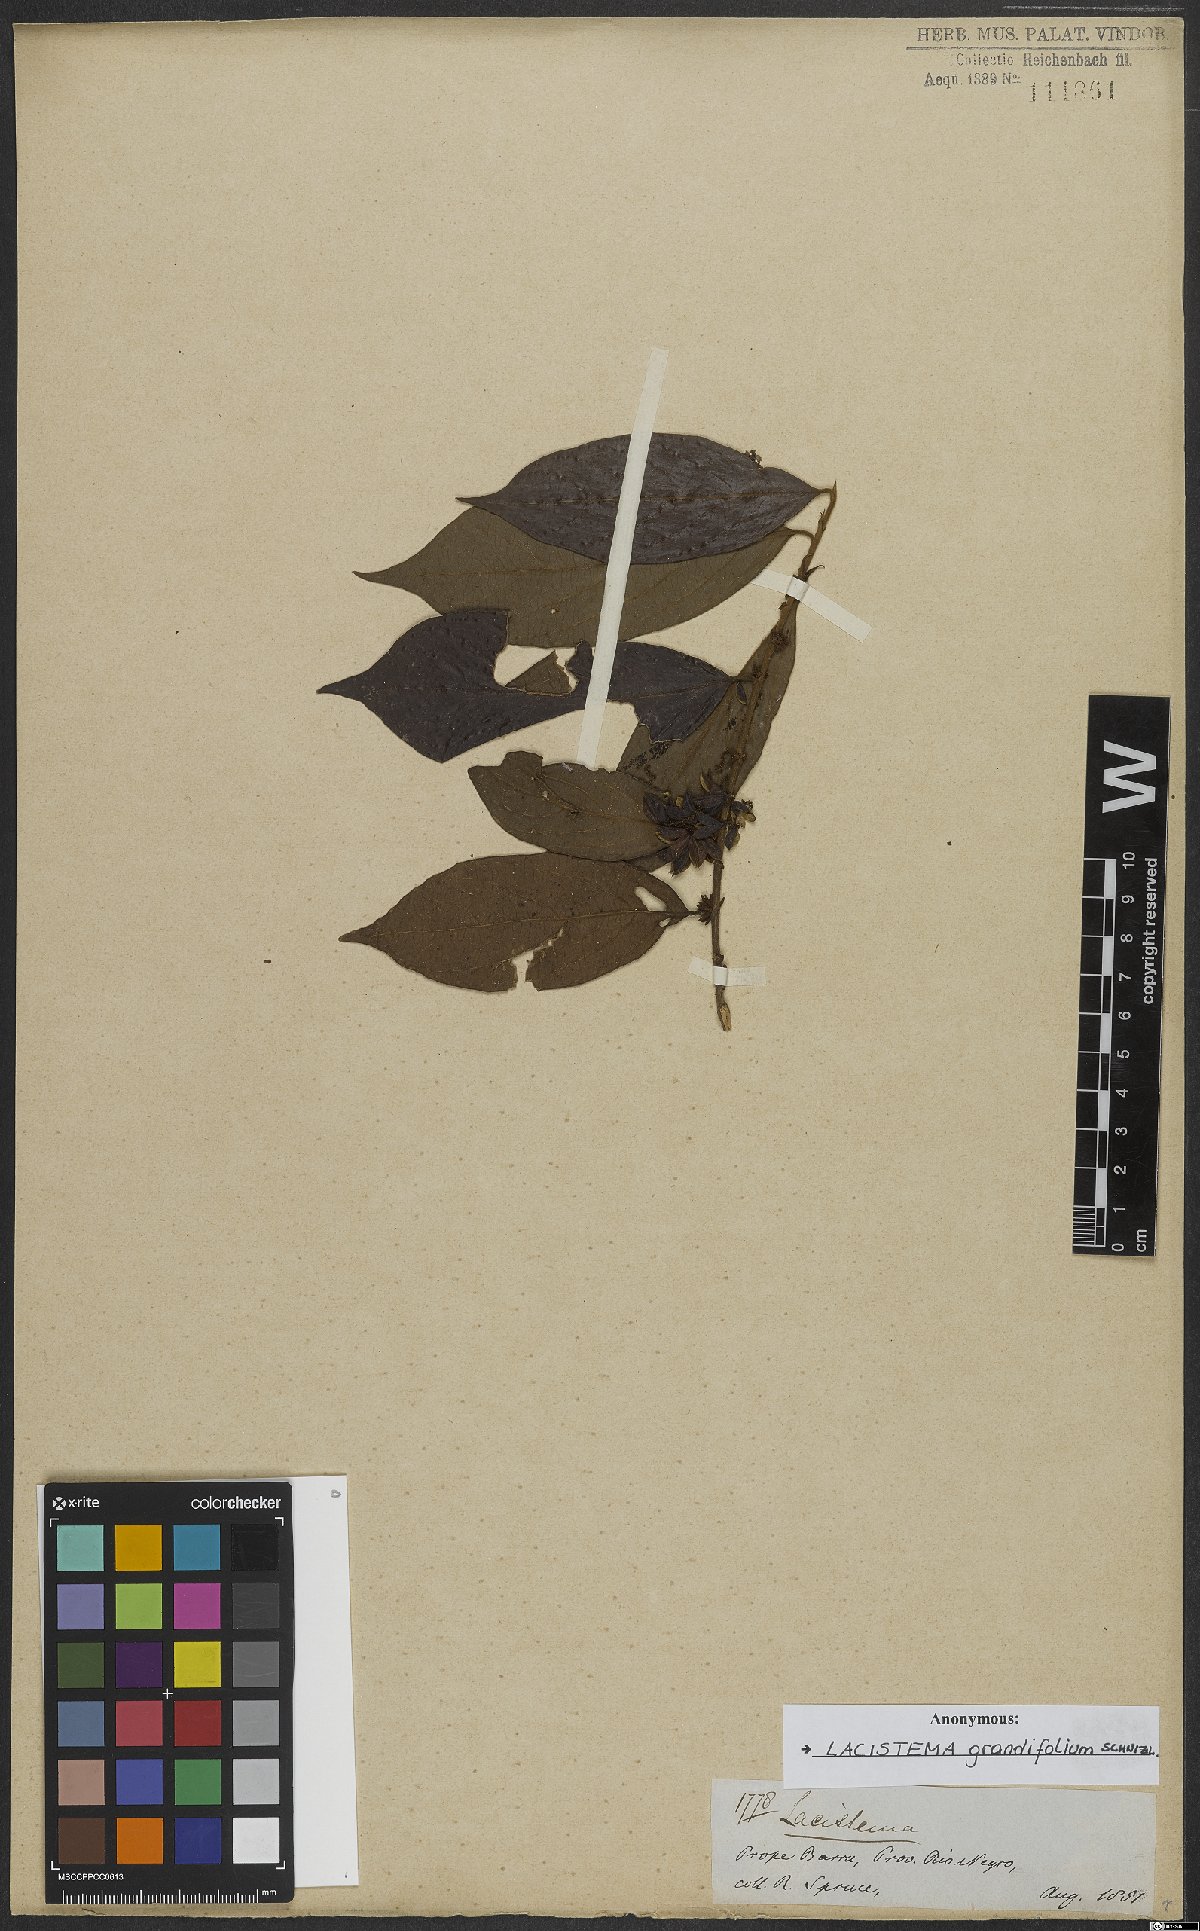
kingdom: Plantae
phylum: Tracheophyta
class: Magnoliopsida
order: Malpighiales
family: Lacistemataceae
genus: Lacistema
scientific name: Lacistema grandifolium
